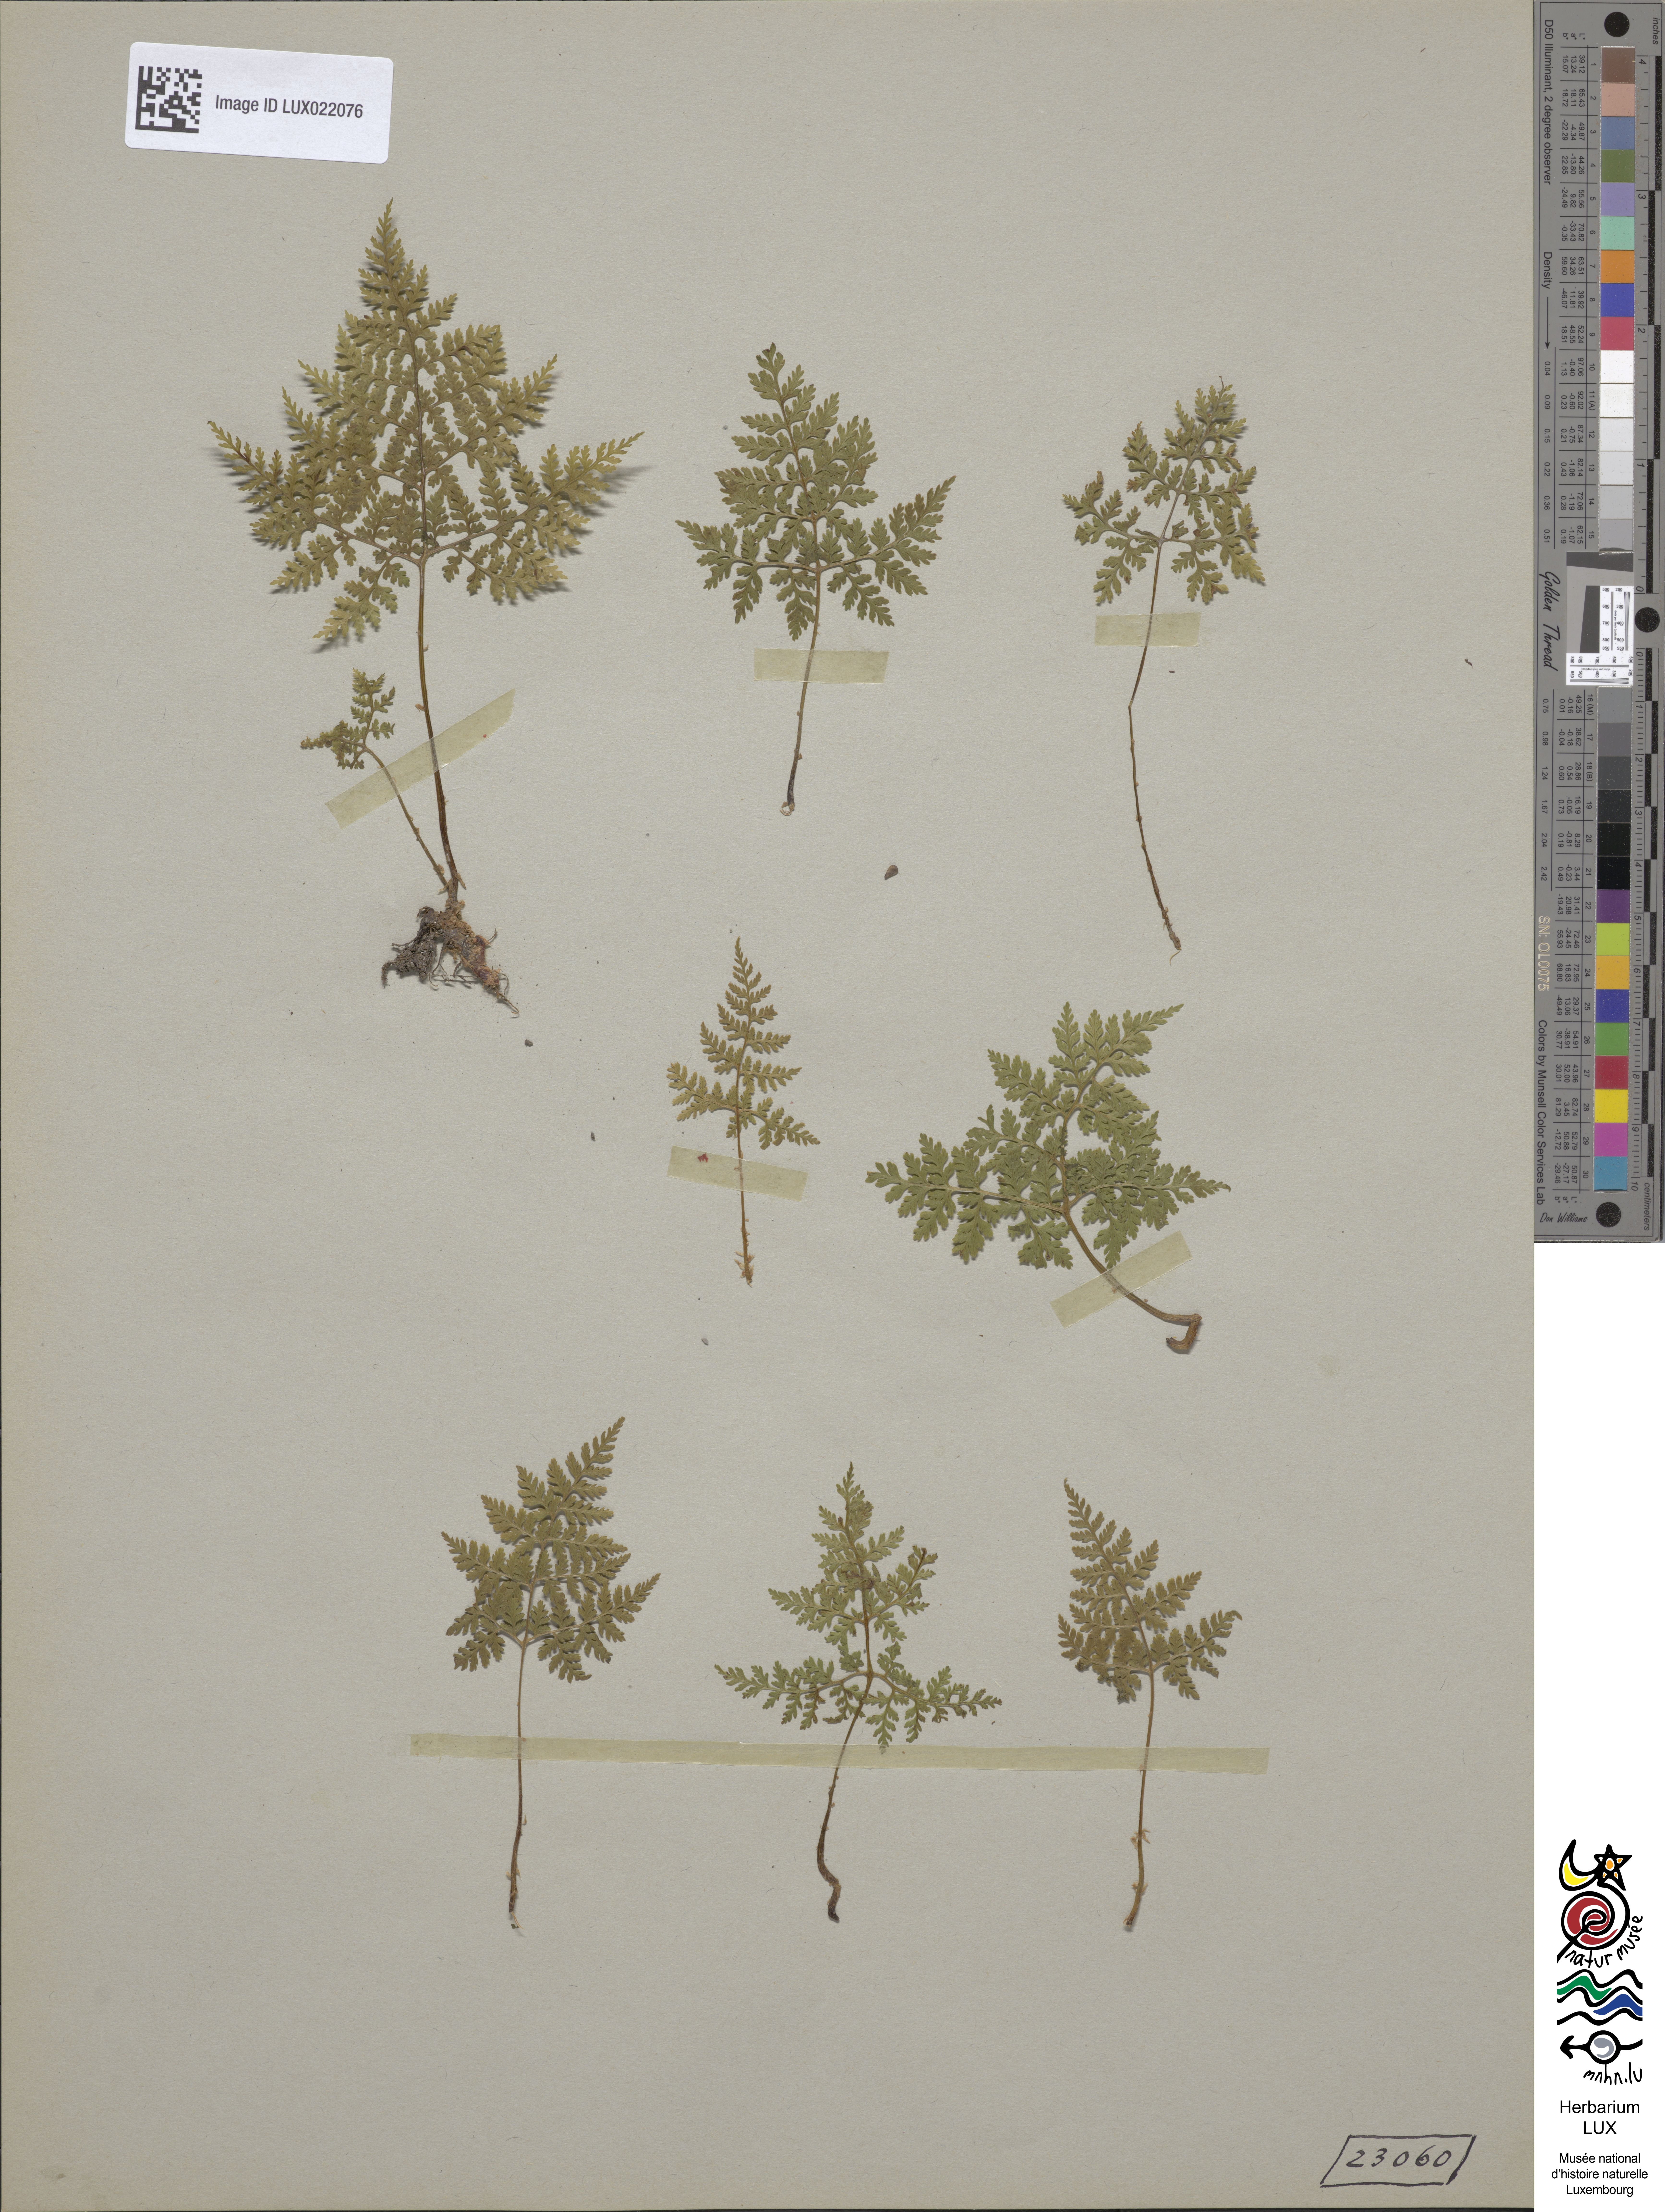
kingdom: Plantae
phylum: Tracheophyta
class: Polypodiopsida
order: Polypodiales
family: Cystopteridaceae
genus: Cystopteris
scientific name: Cystopteris montana
